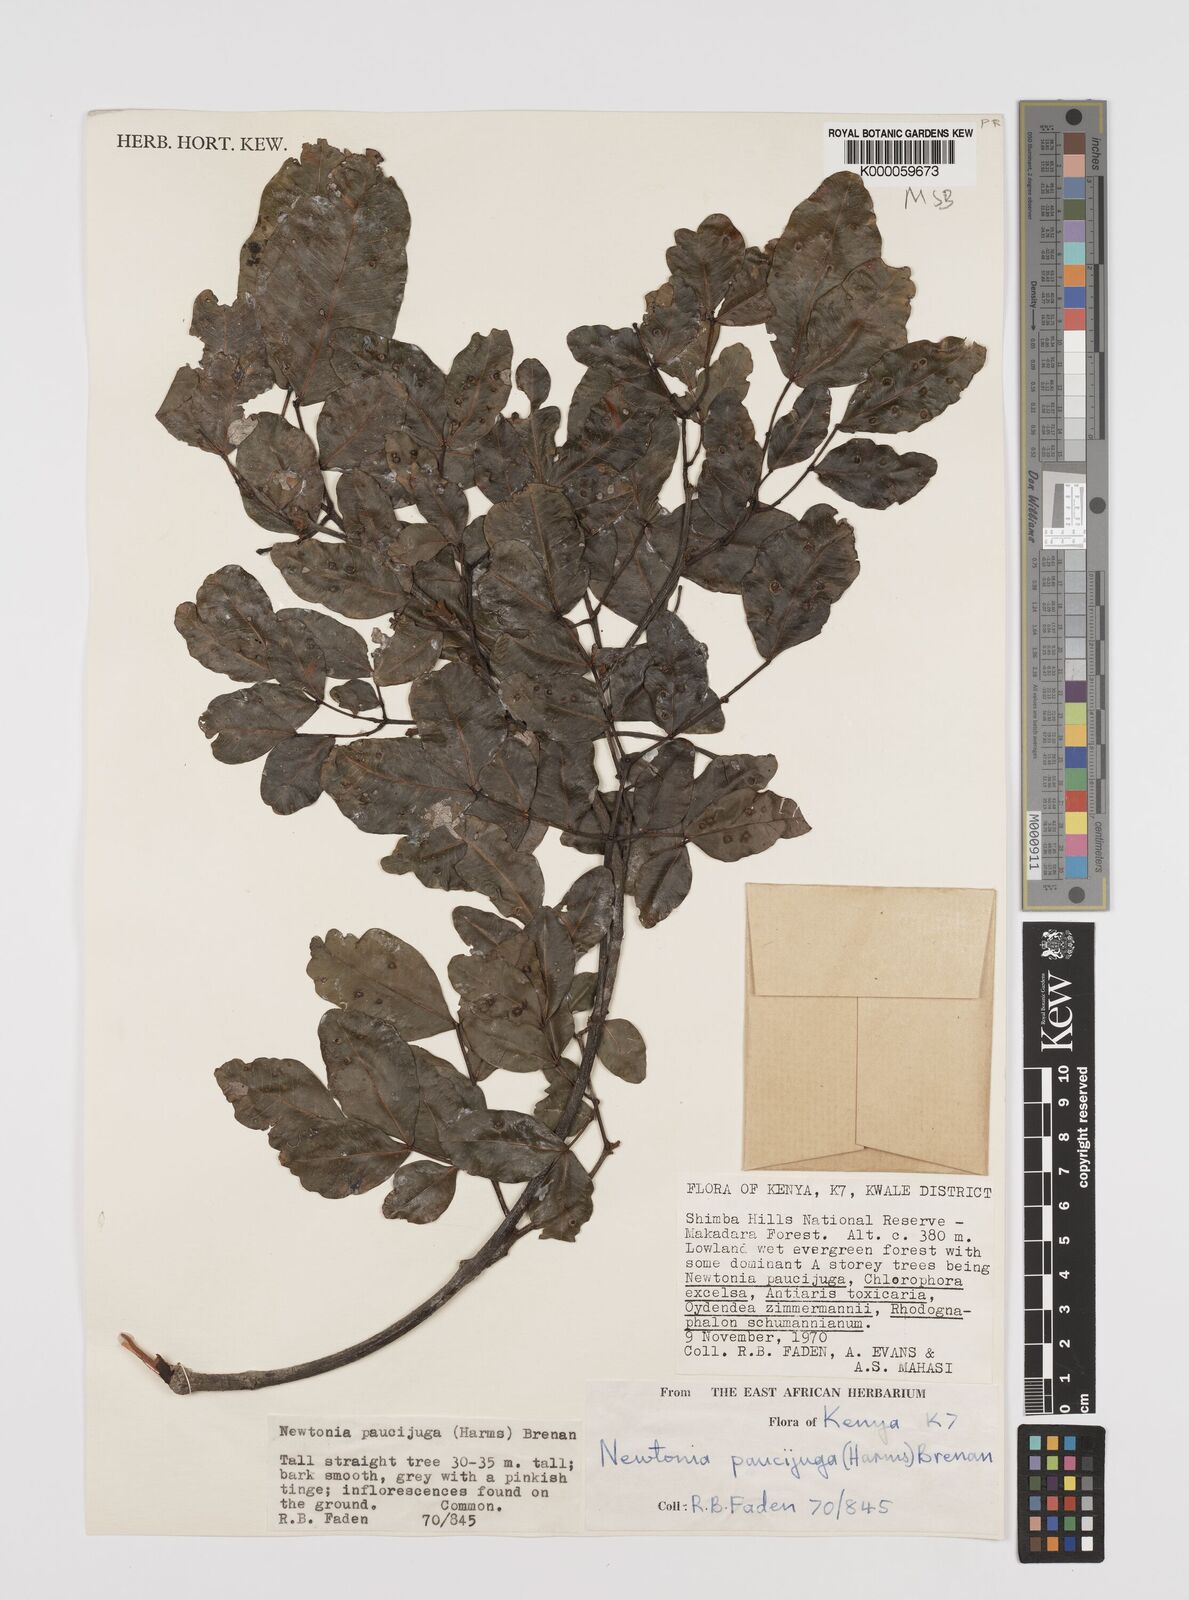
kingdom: Plantae
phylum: Tracheophyta
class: Magnoliopsida
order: Fabales
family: Fabaceae
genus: Newtonia
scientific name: Newtonia paucijuga
